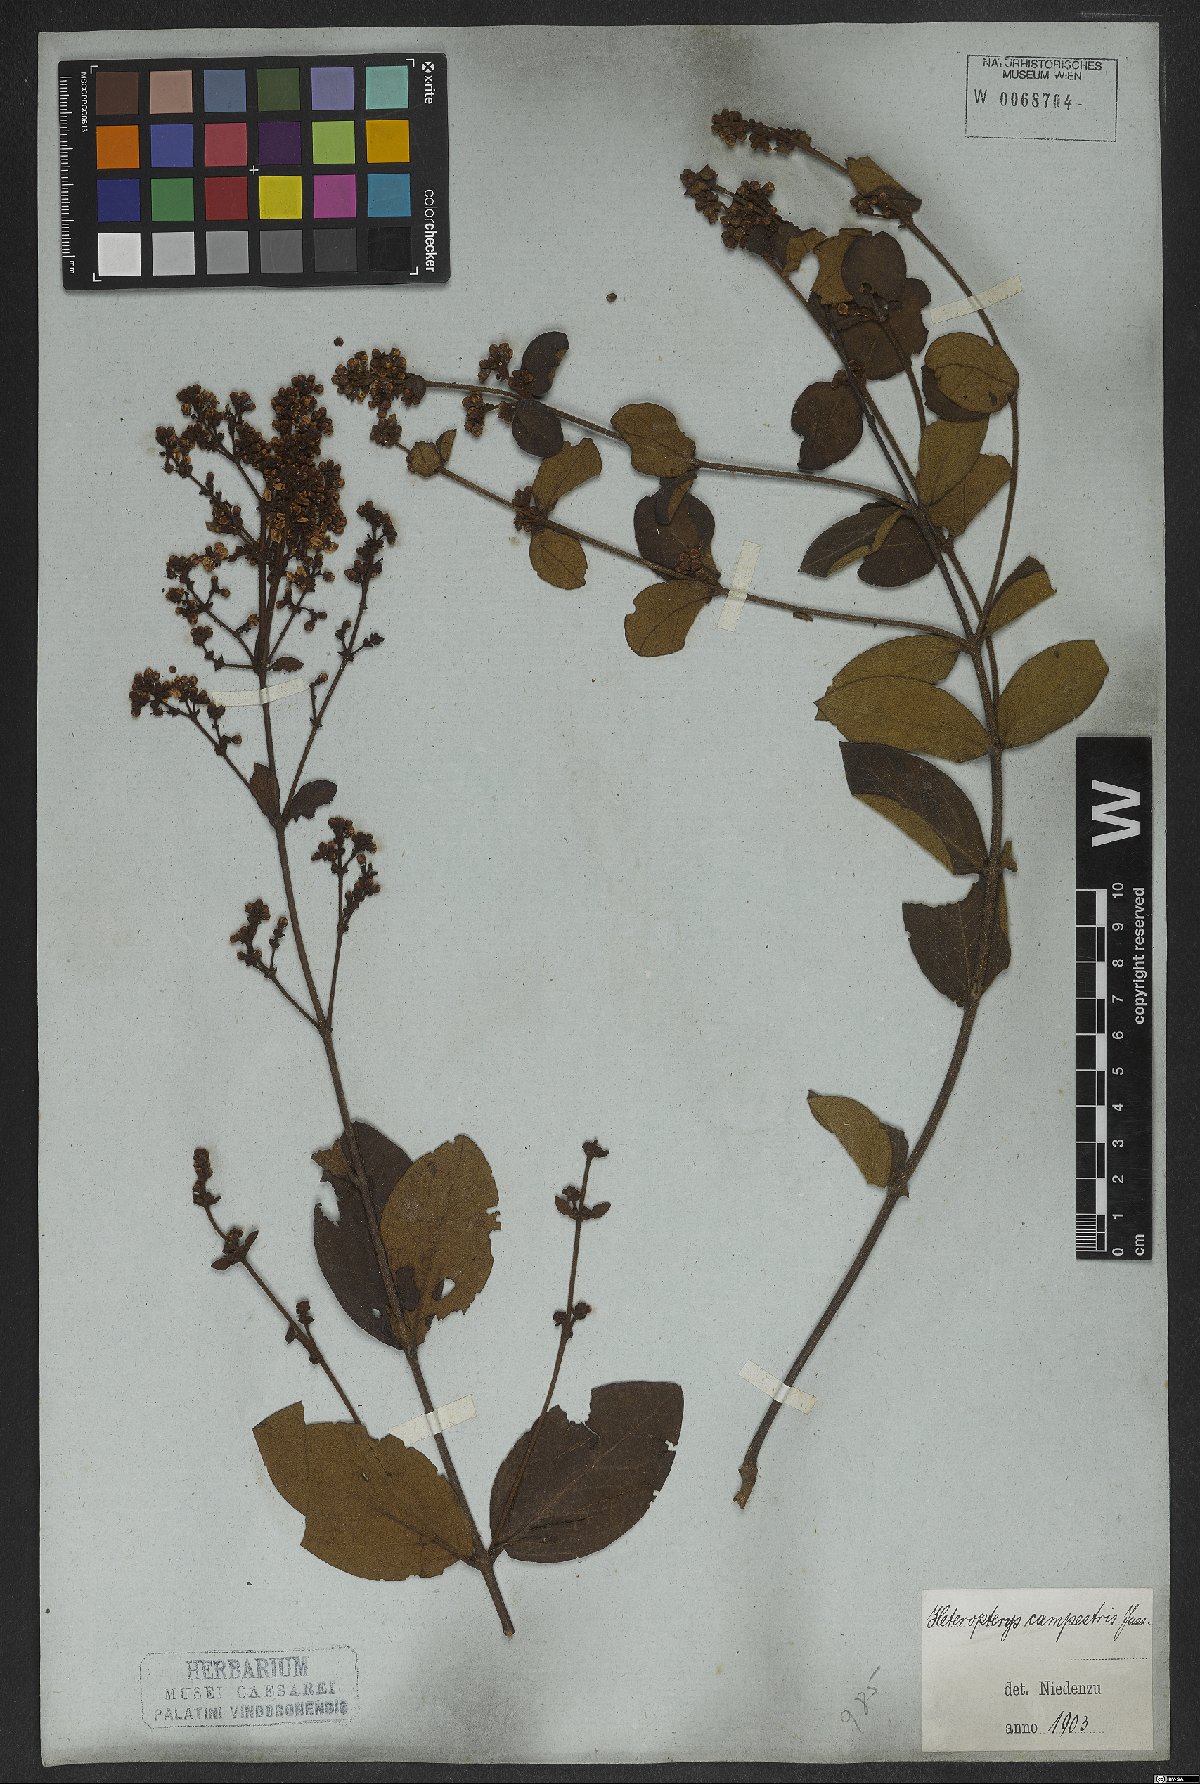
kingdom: Plantae
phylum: Tracheophyta
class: Magnoliopsida
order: Malpighiales
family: Malpighiaceae
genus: Heteropterys
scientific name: Heteropterys campestris
